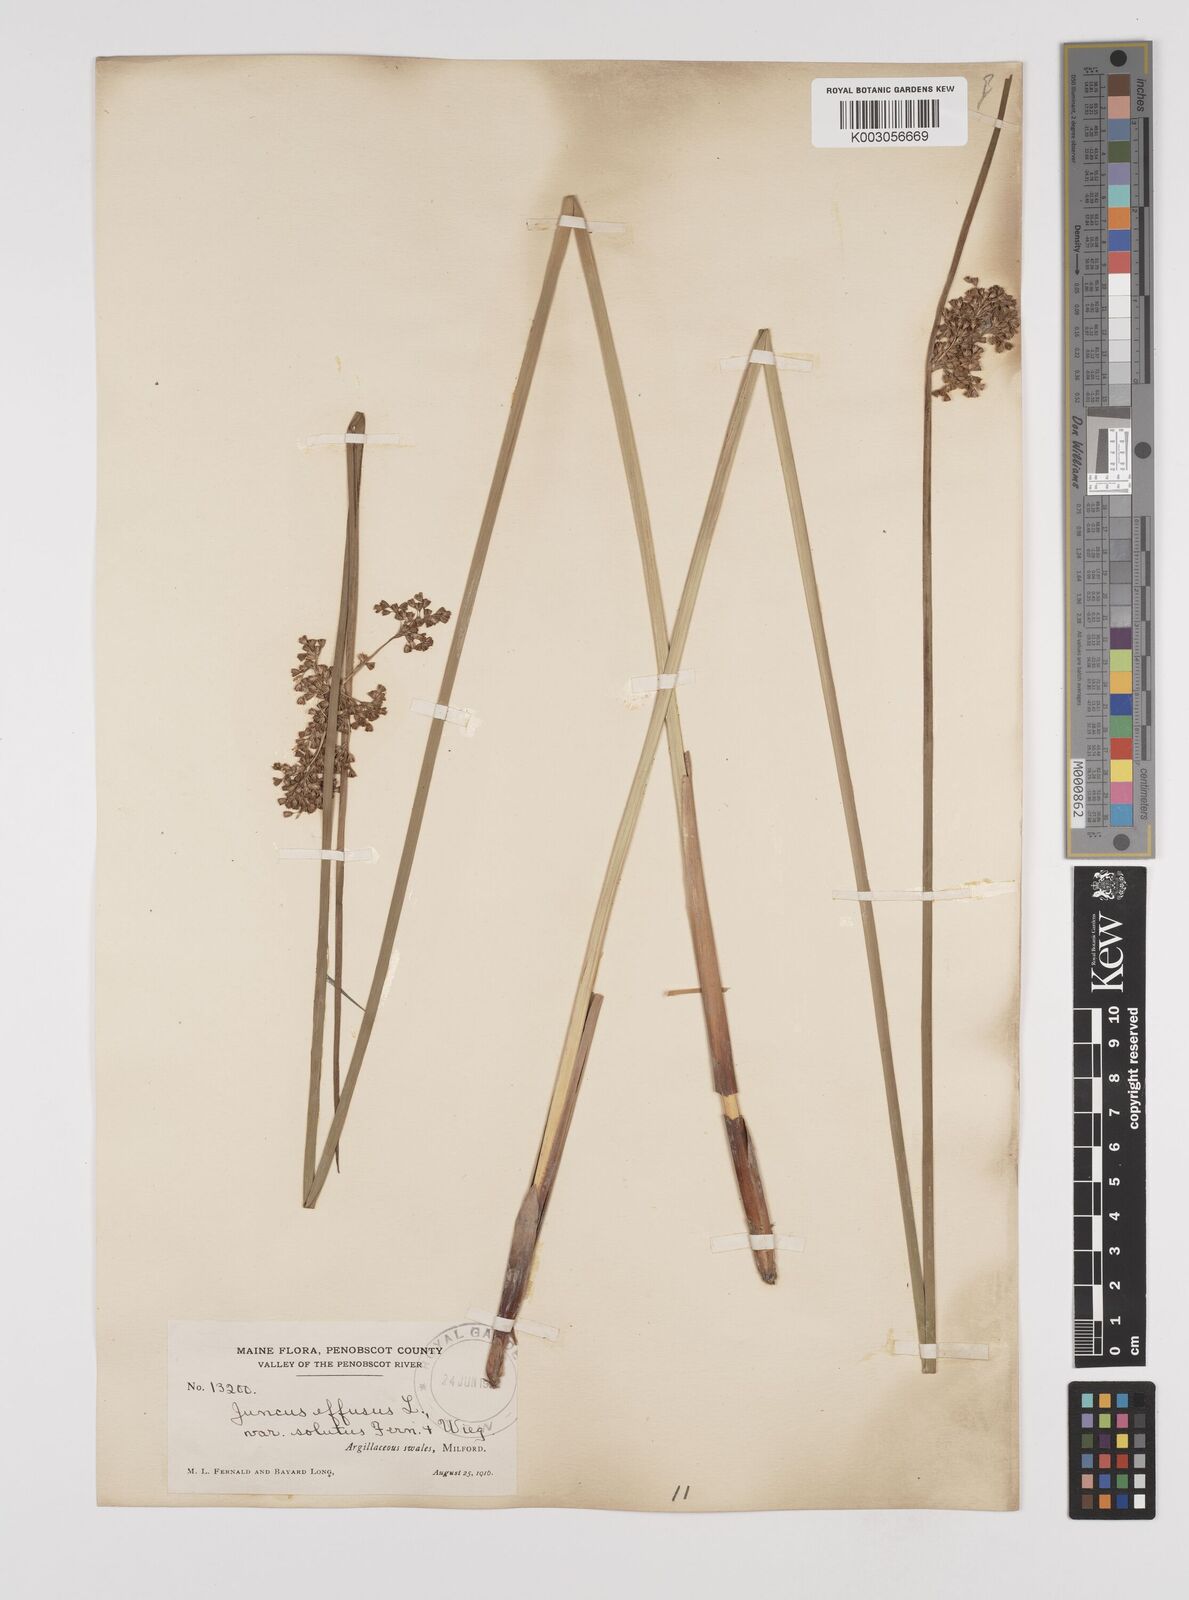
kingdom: Plantae
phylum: Tracheophyta
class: Liliopsida
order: Poales
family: Juncaceae
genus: Juncus
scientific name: Juncus effusus
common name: Soft rush
